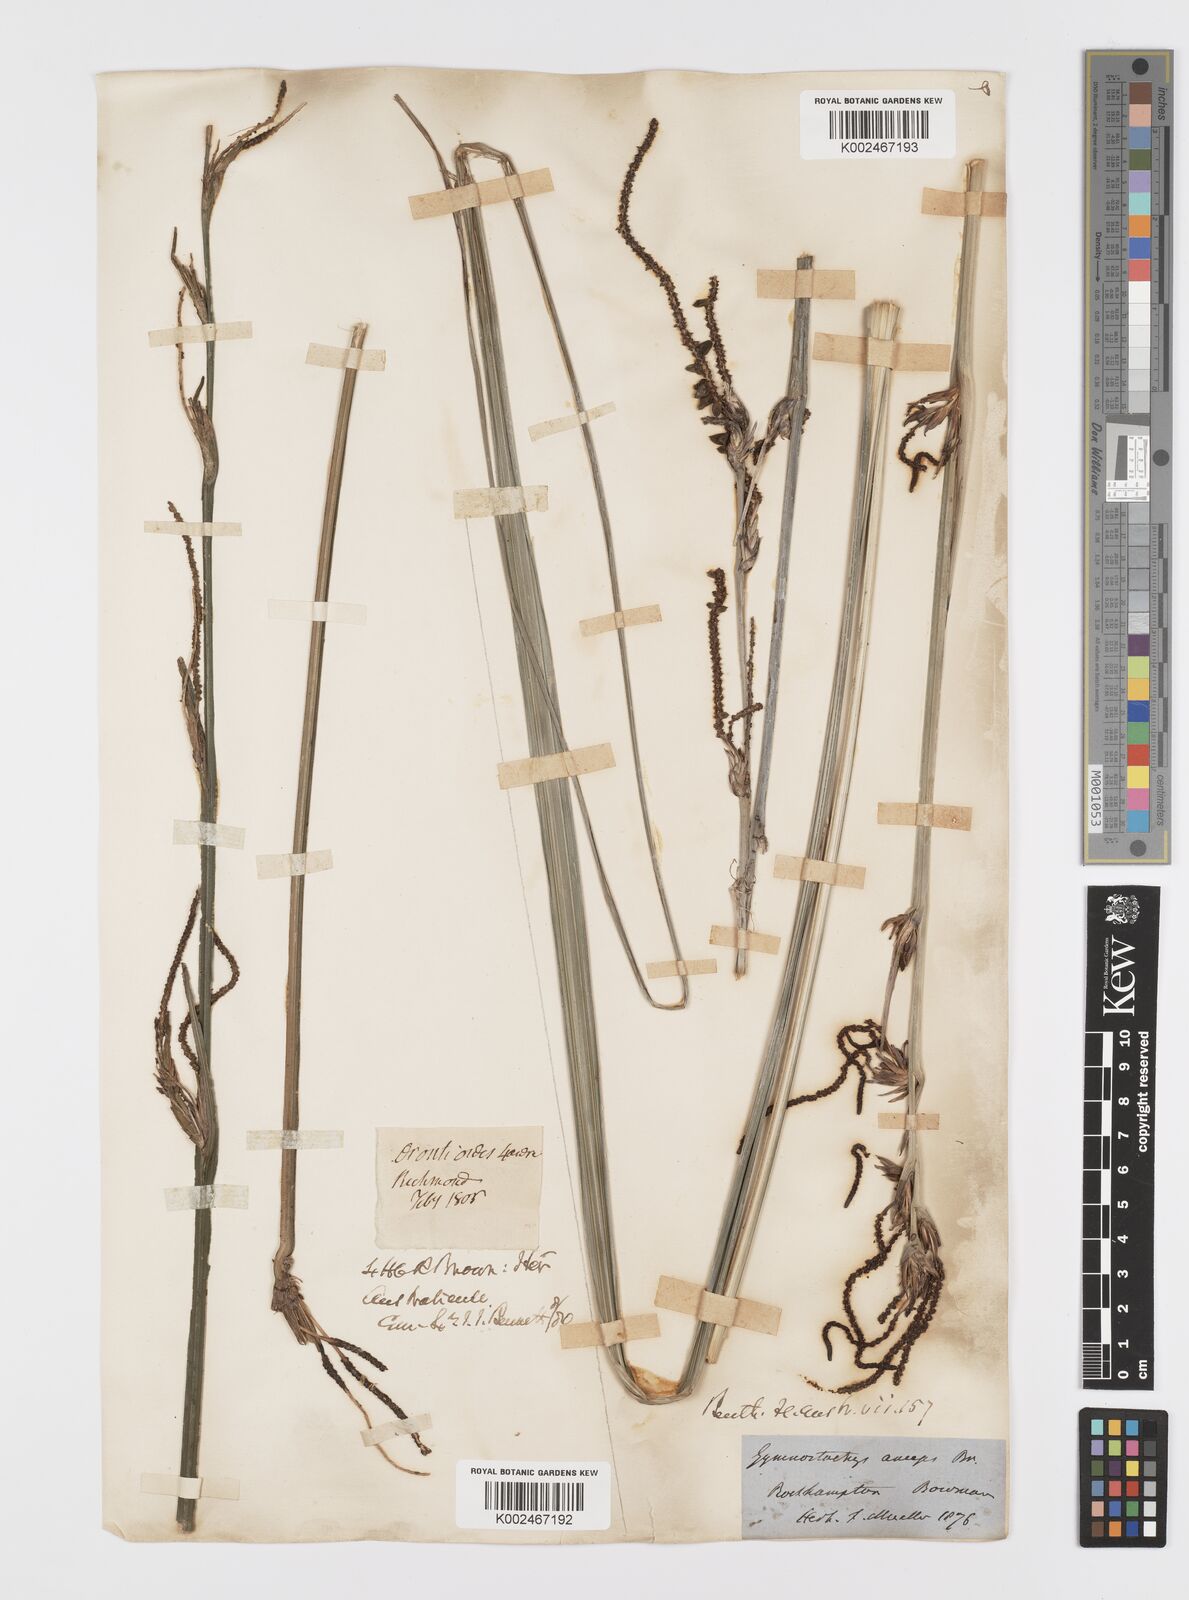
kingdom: Plantae
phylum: Tracheophyta
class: Liliopsida
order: Alismatales
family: Araceae
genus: Gymnostachys
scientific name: Gymnostachys anceps
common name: Settler's-flax
